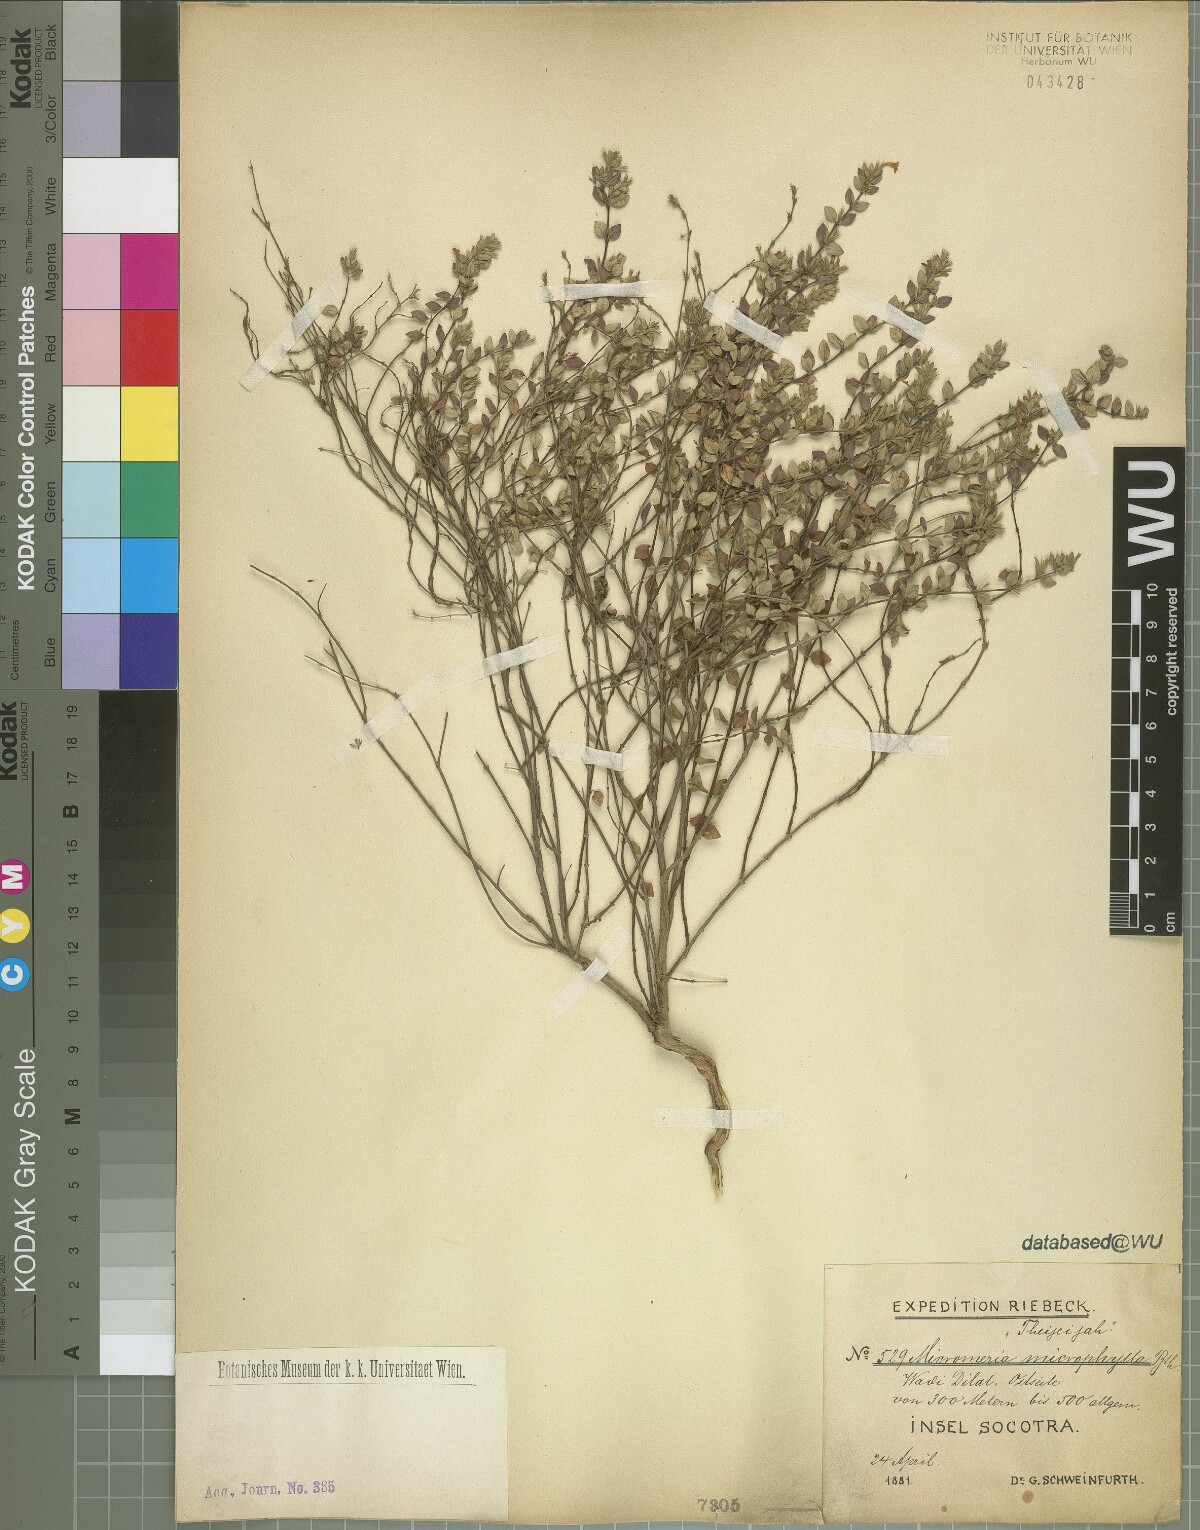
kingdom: Plantae
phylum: Tracheophyta
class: Magnoliopsida
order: Lamiales
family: Lamiaceae
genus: Micromeria
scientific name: Micromeria imbricata
